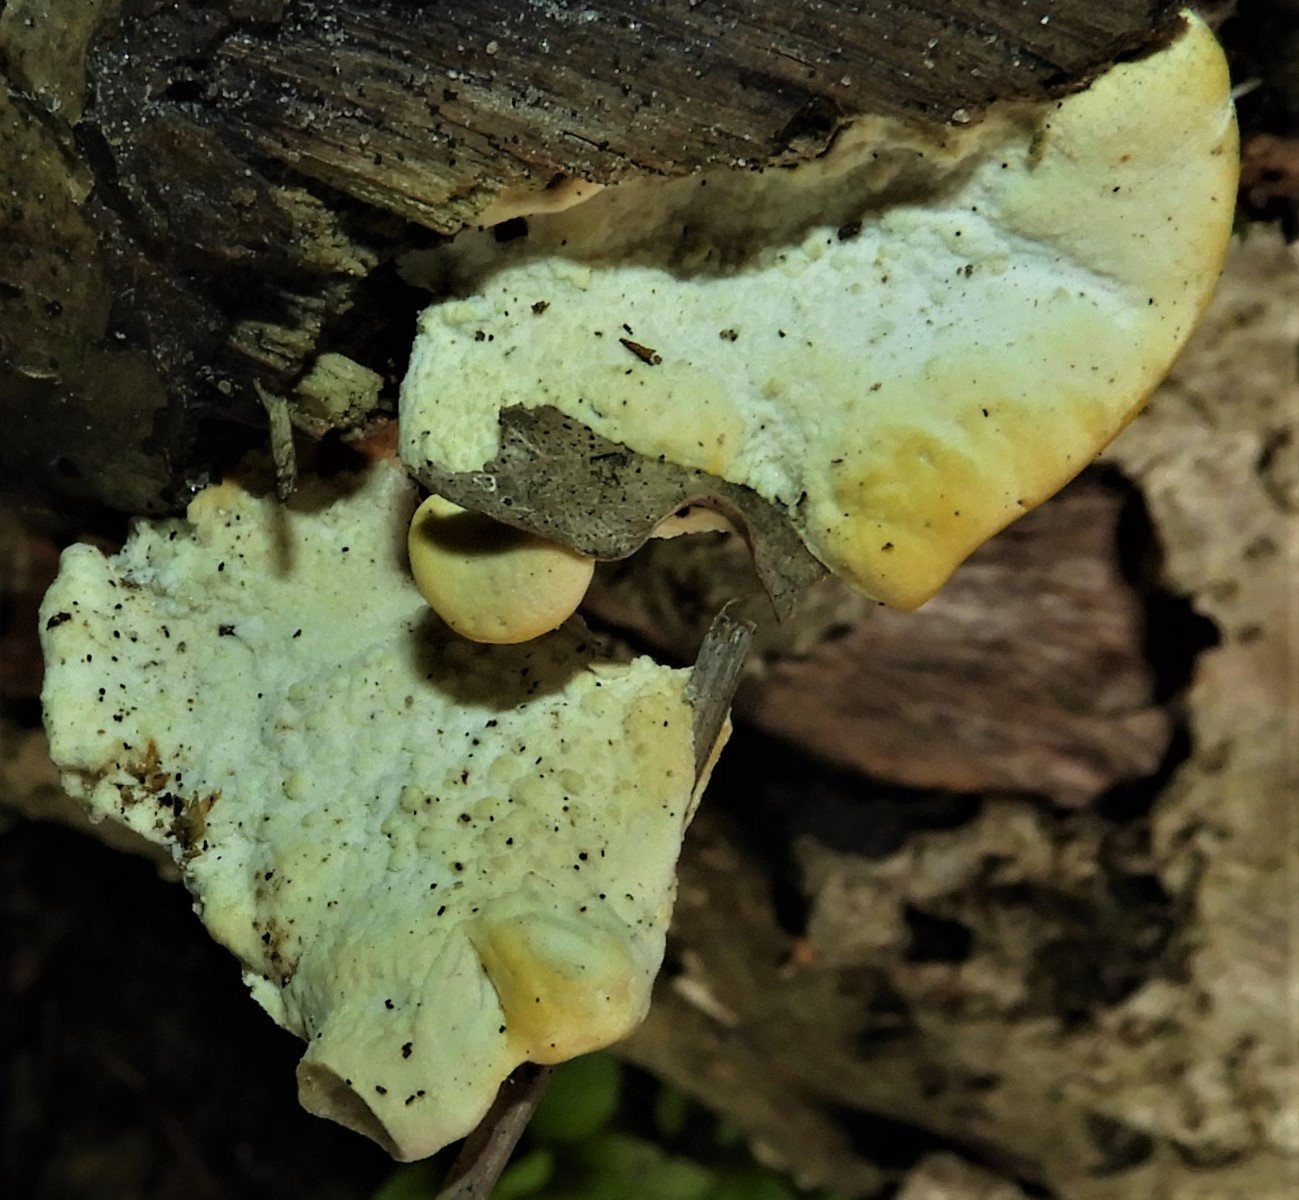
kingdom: Fungi
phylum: Basidiomycota
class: Agaricomycetes
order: Polyporales
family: Steccherinaceae
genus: Antrodiella
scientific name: Antrodiella serpula
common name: gulrandet elastikporesvamp
